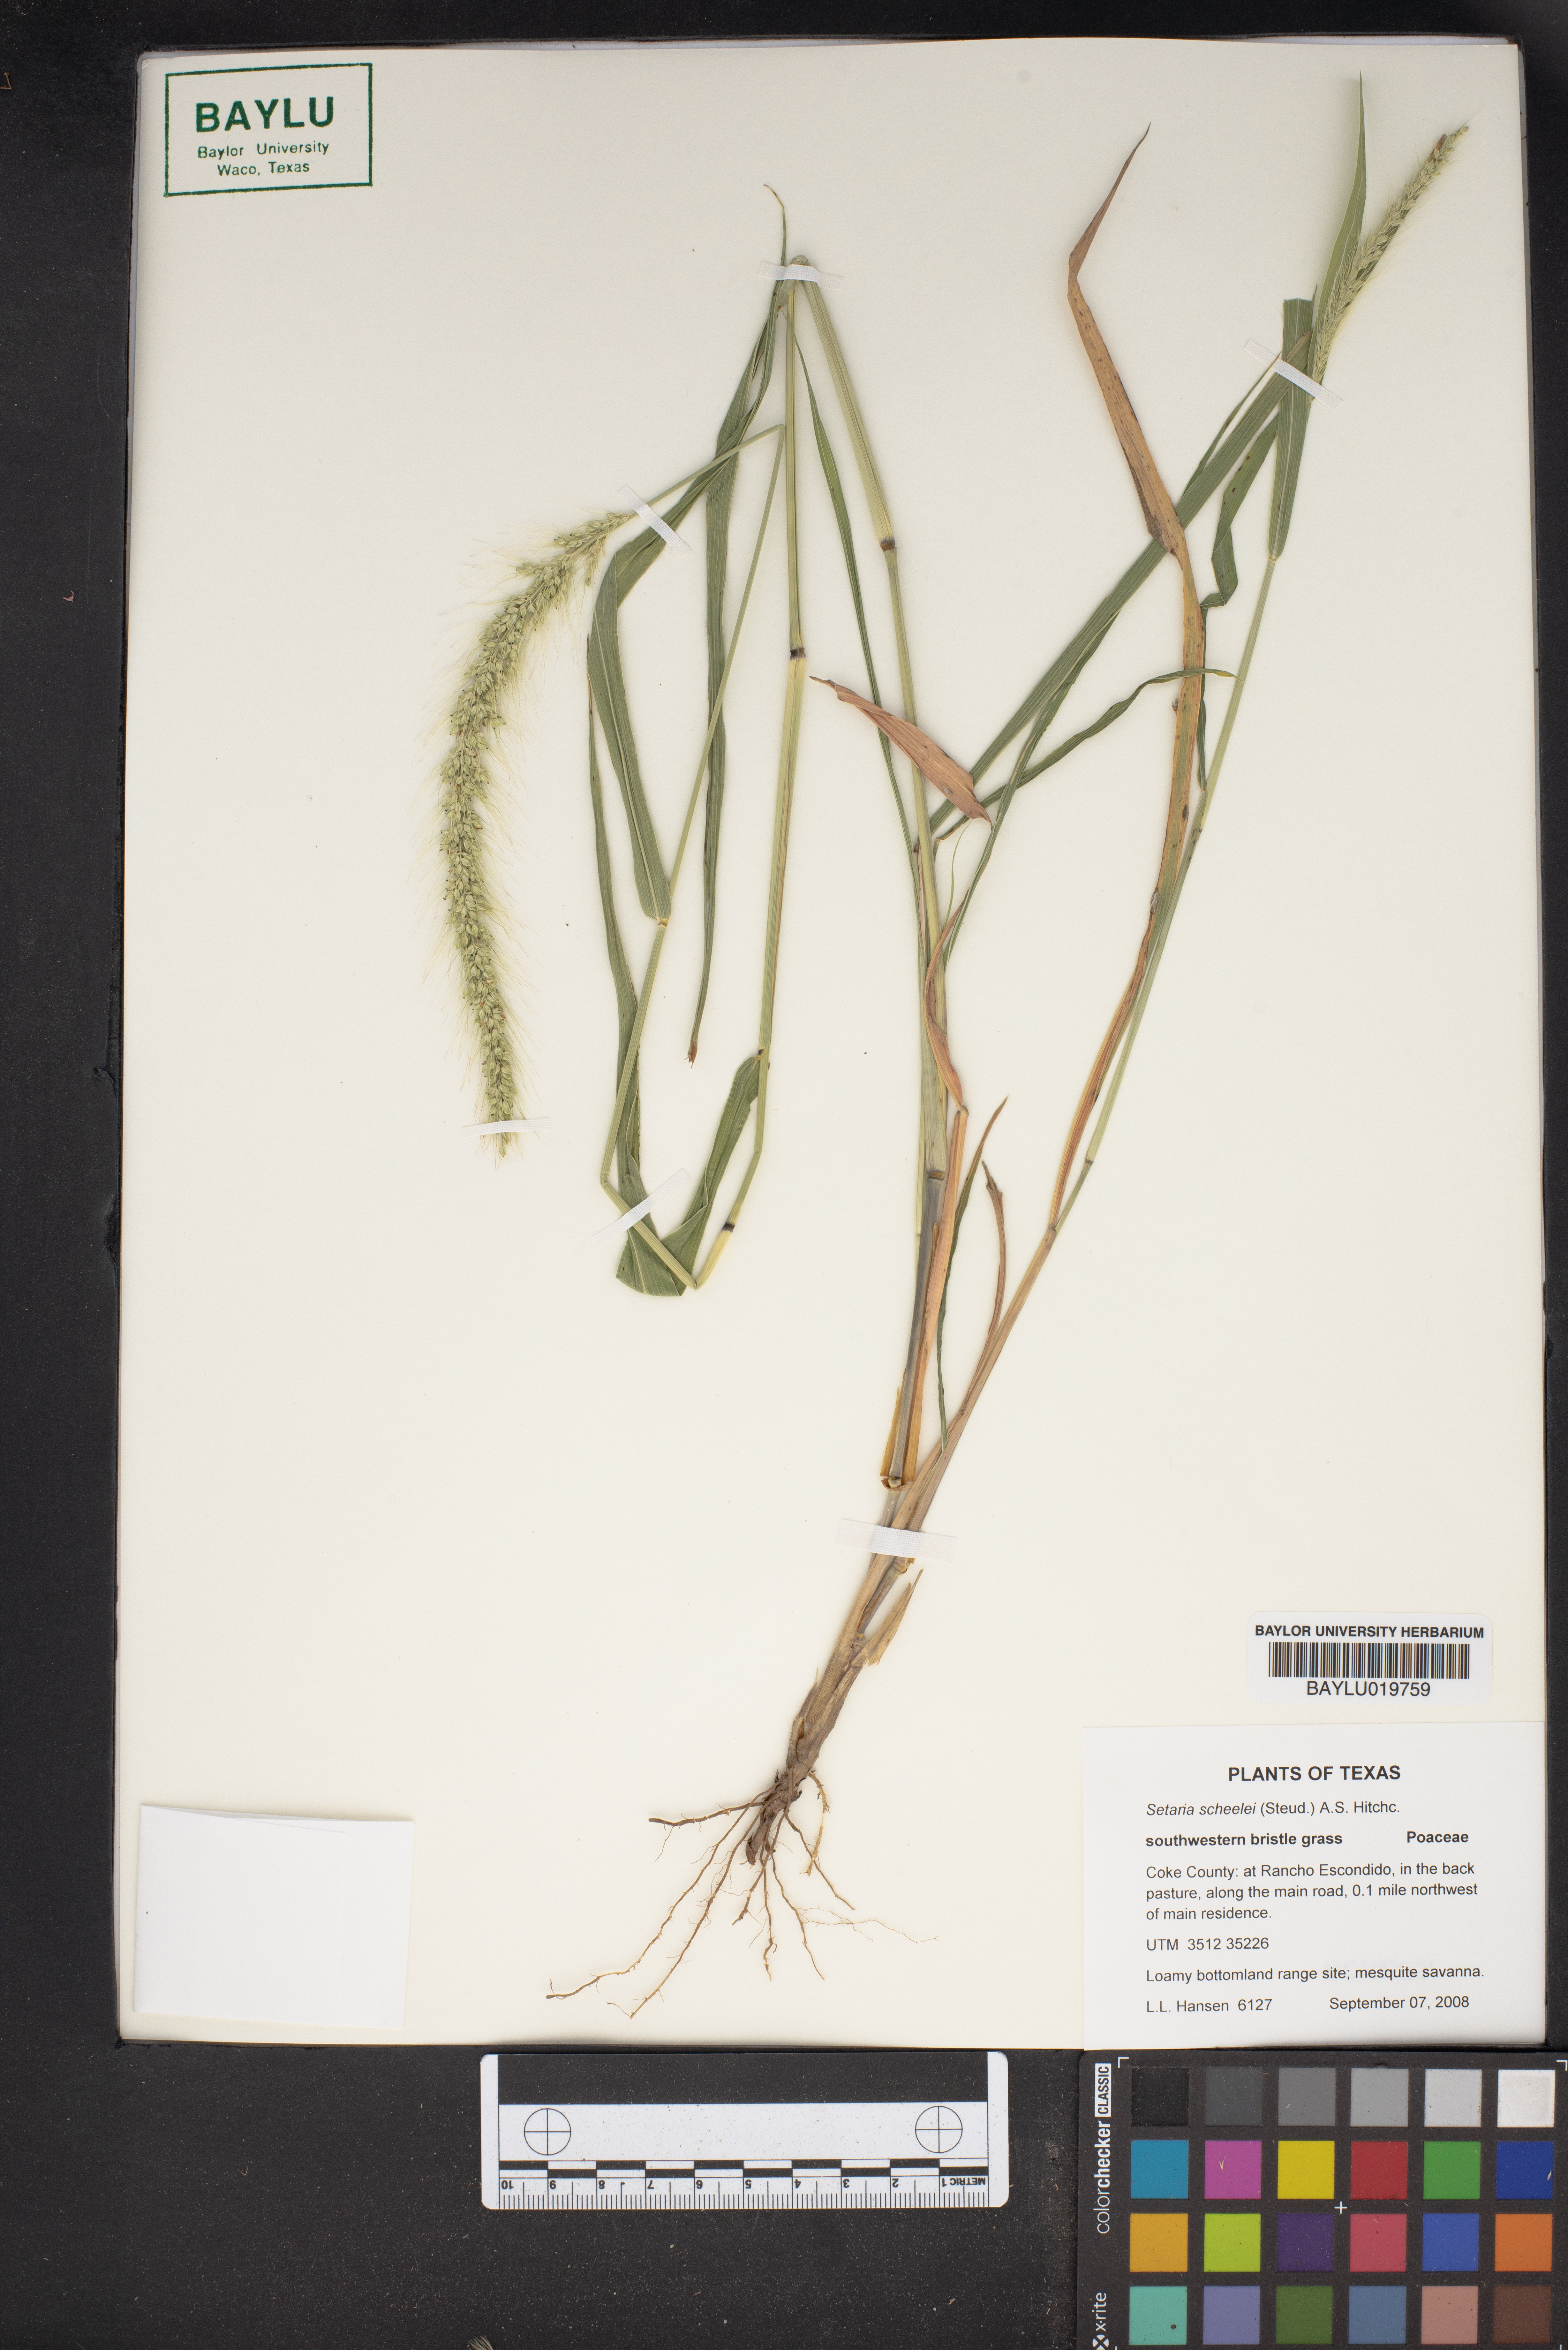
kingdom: Plantae
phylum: Tracheophyta
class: Liliopsida
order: Poales
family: Poaceae
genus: Setaria
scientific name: Setaria scheelei
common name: Southwestern bristle grass
